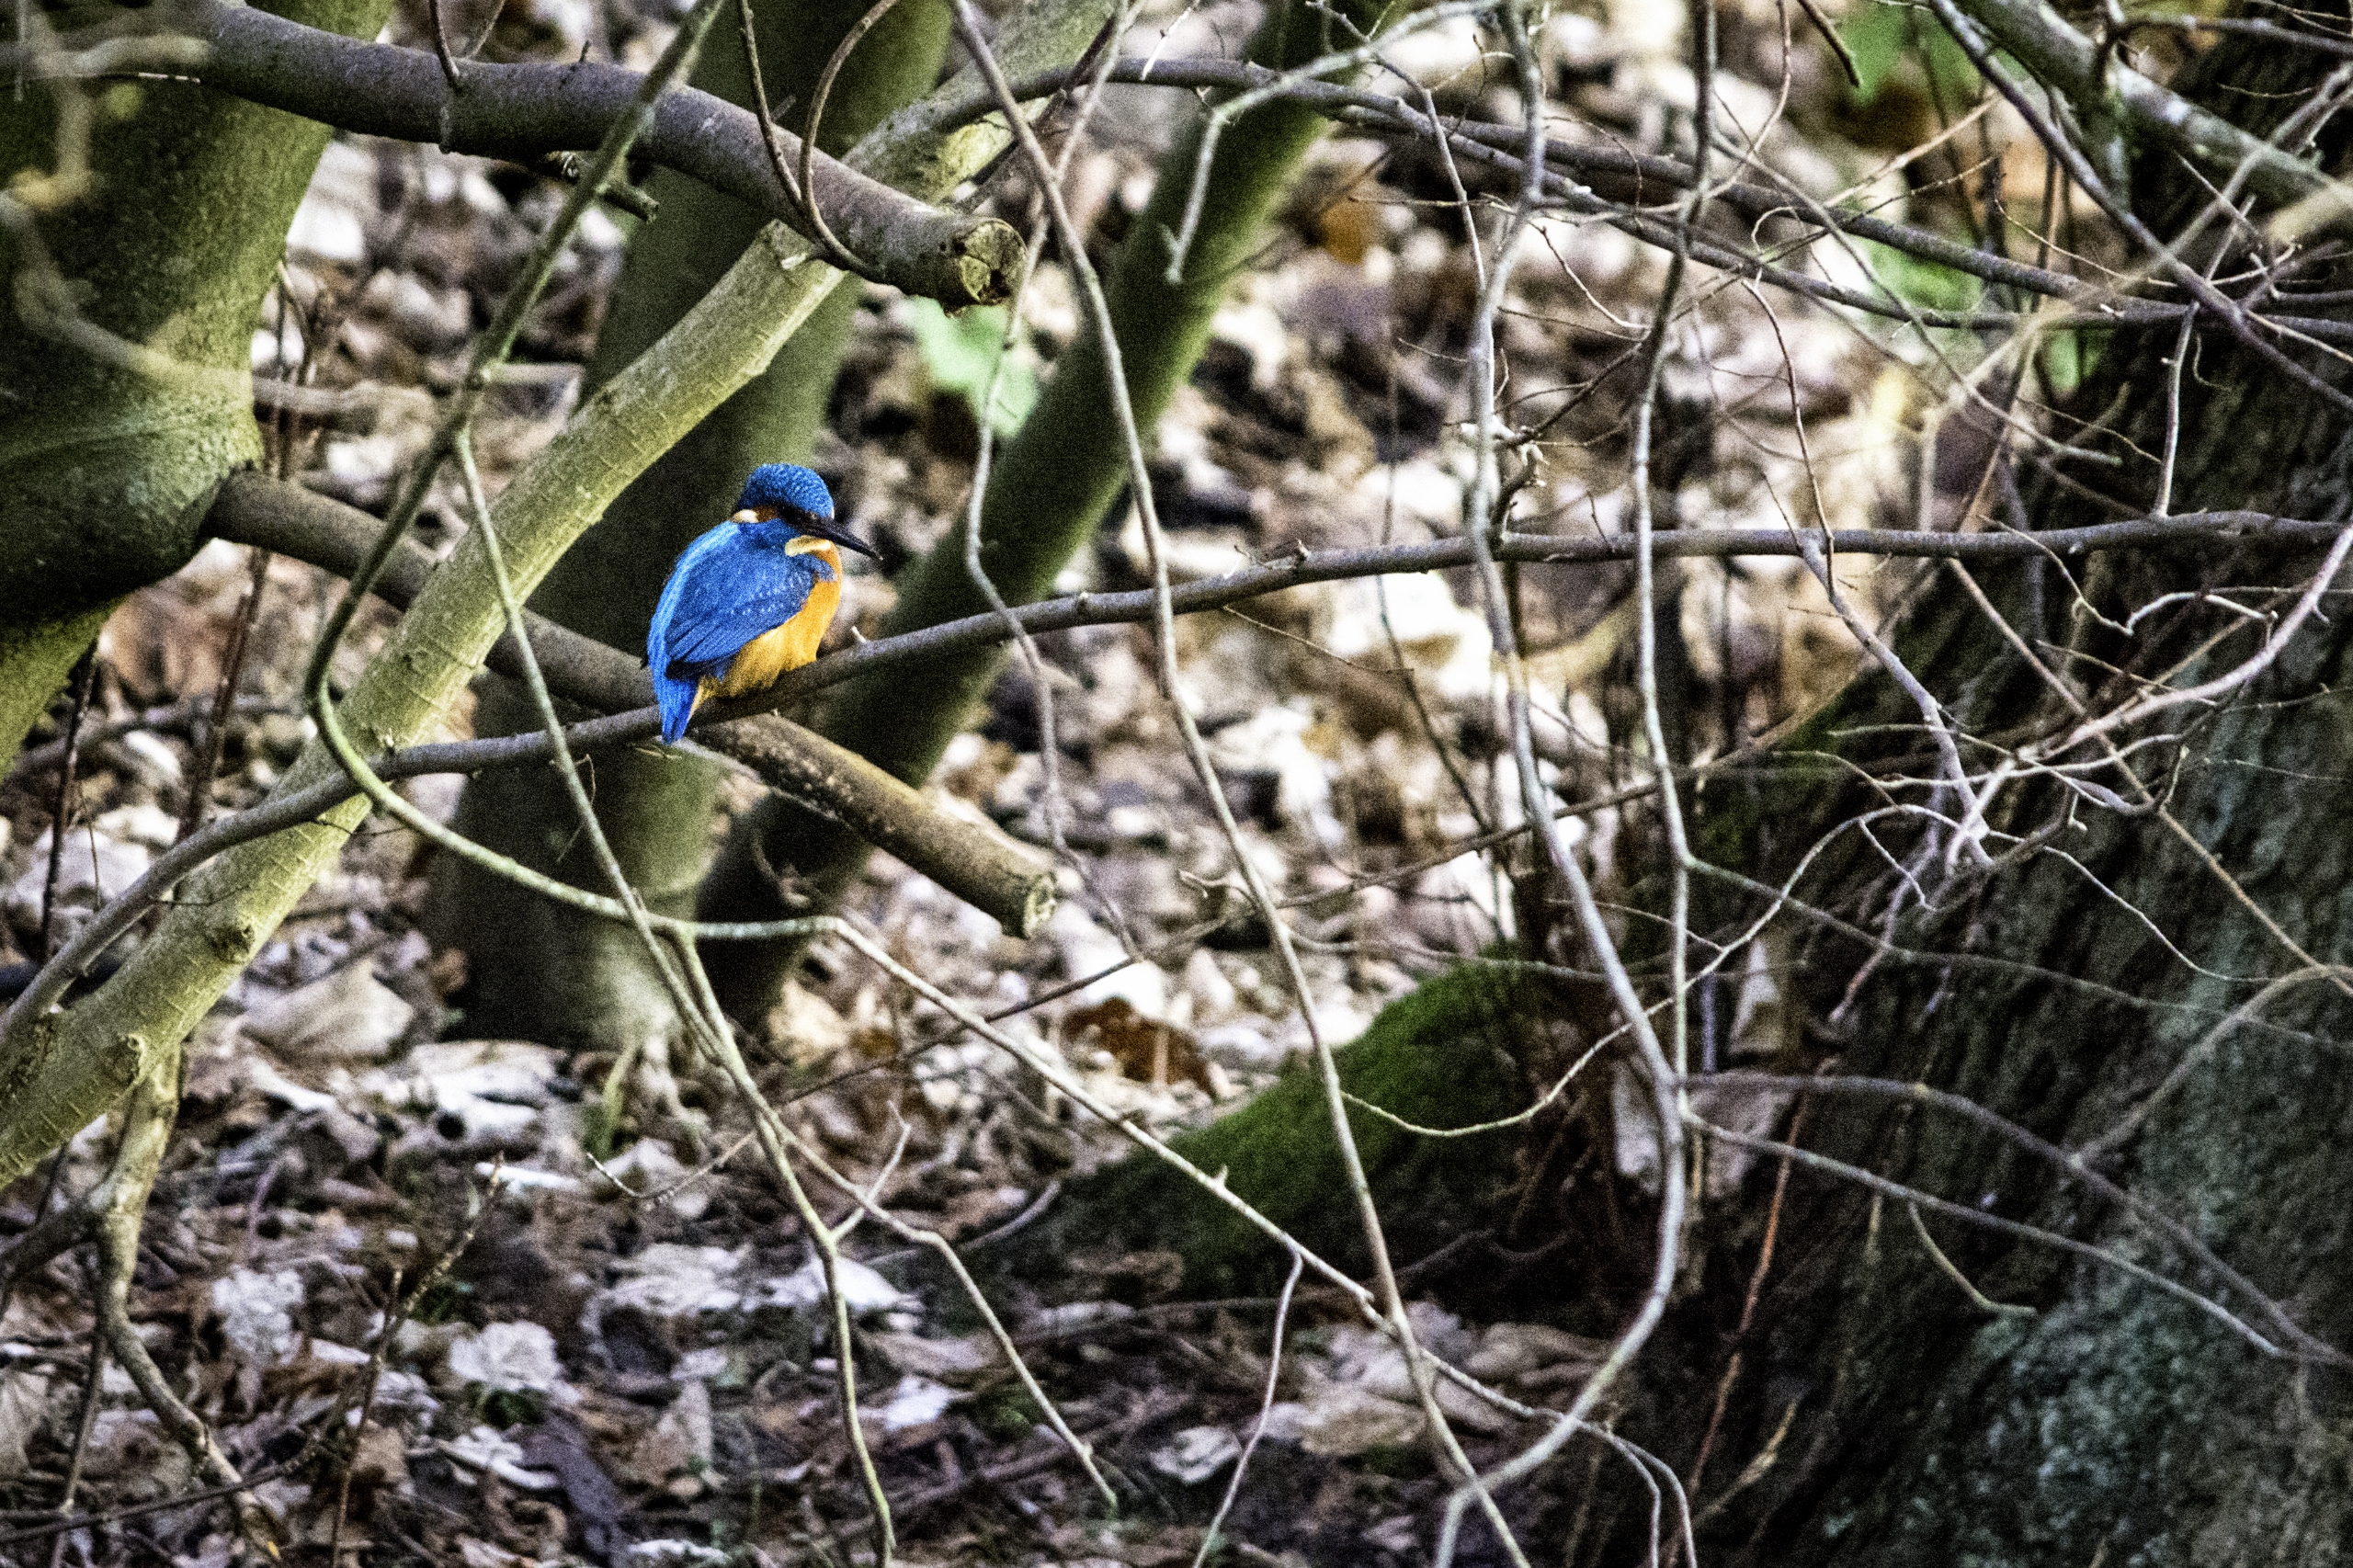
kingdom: Animalia
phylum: Chordata
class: Aves
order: Coraciiformes
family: Alcedinidae
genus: Alcedo
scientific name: Alcedo atthis
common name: Isfugl
